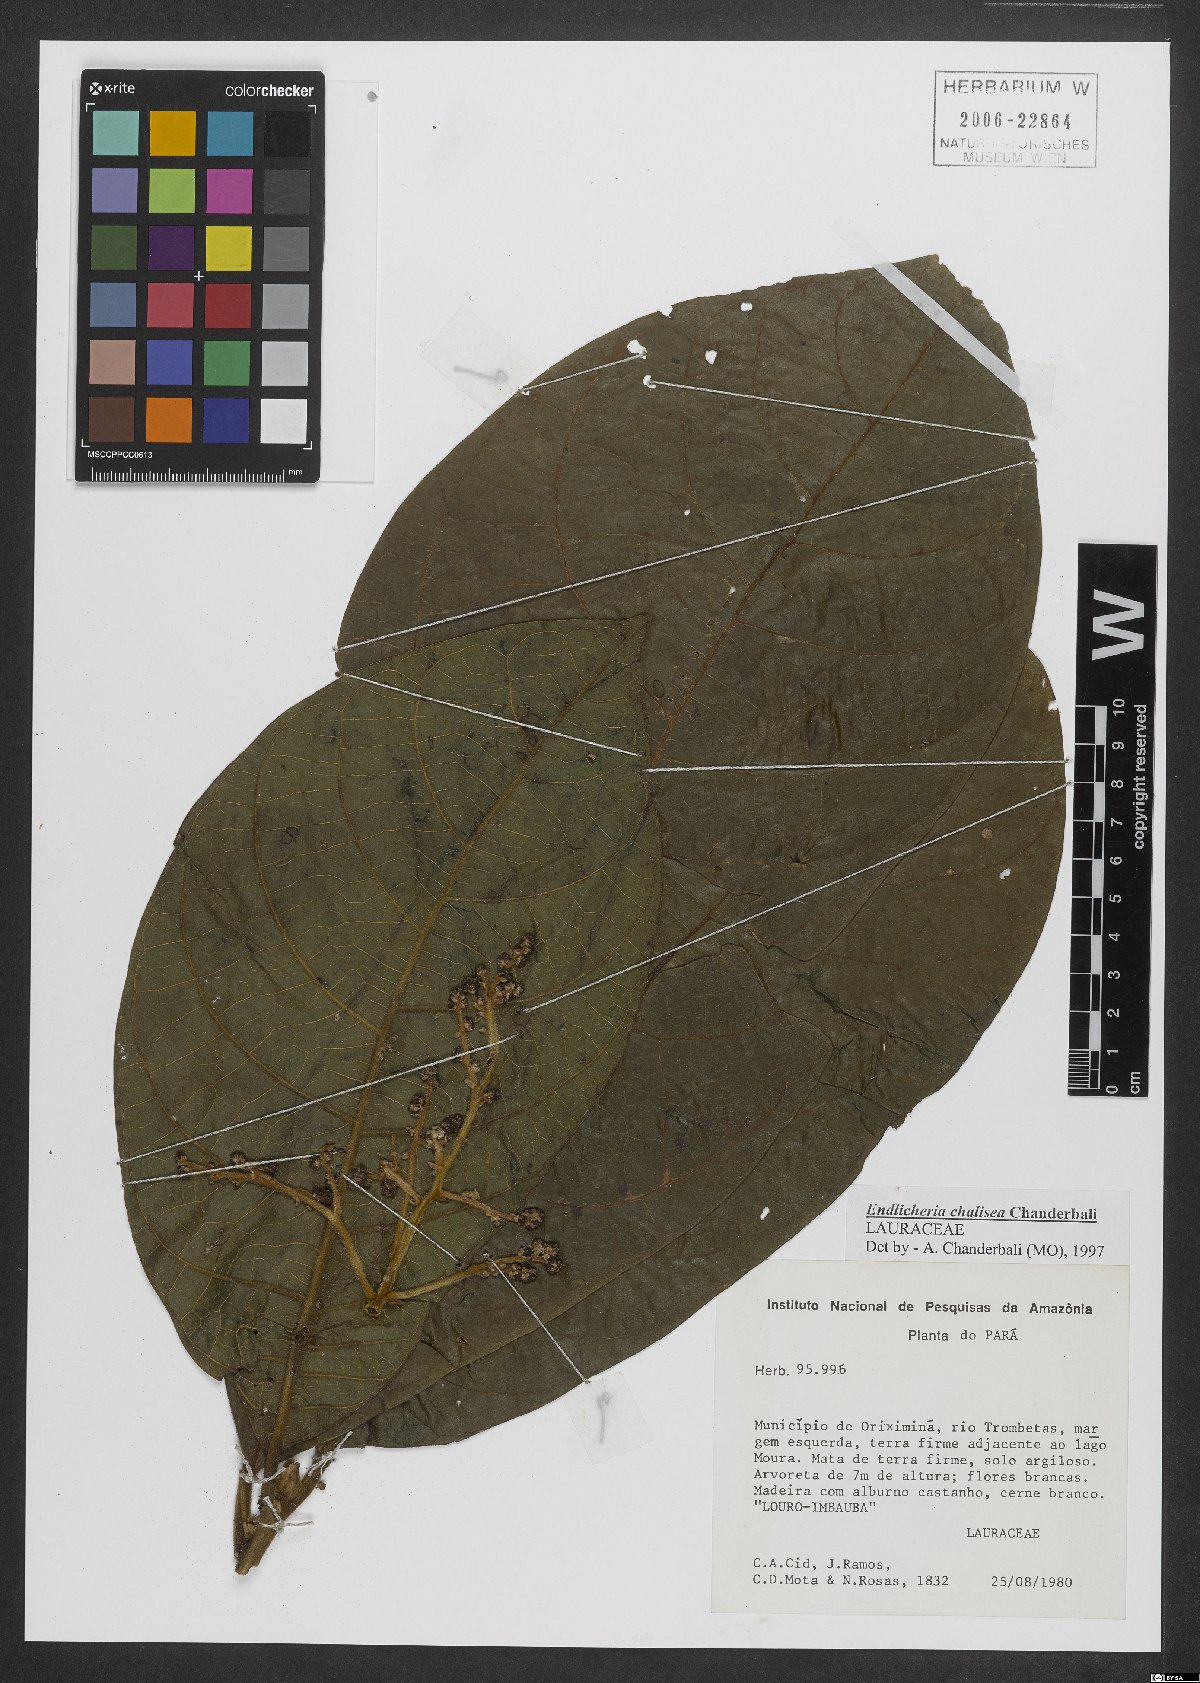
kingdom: Plantae
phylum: Tracheophyta
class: Magnoliopsida
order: Laurales
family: Lauraceae
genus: Endlicheria
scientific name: Endlicheria chalisea
